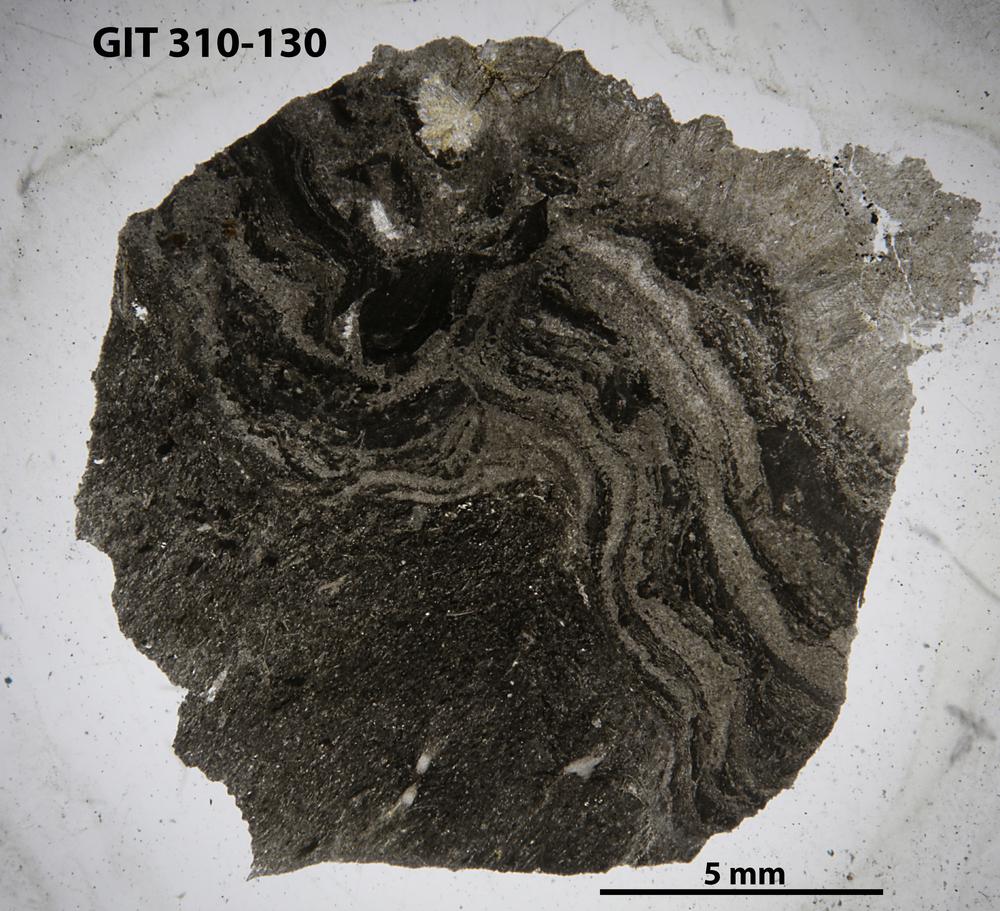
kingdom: Animalia
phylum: Porifera
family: Stylostromatidae
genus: Pachystylostroma
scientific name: Pachystylostroma
